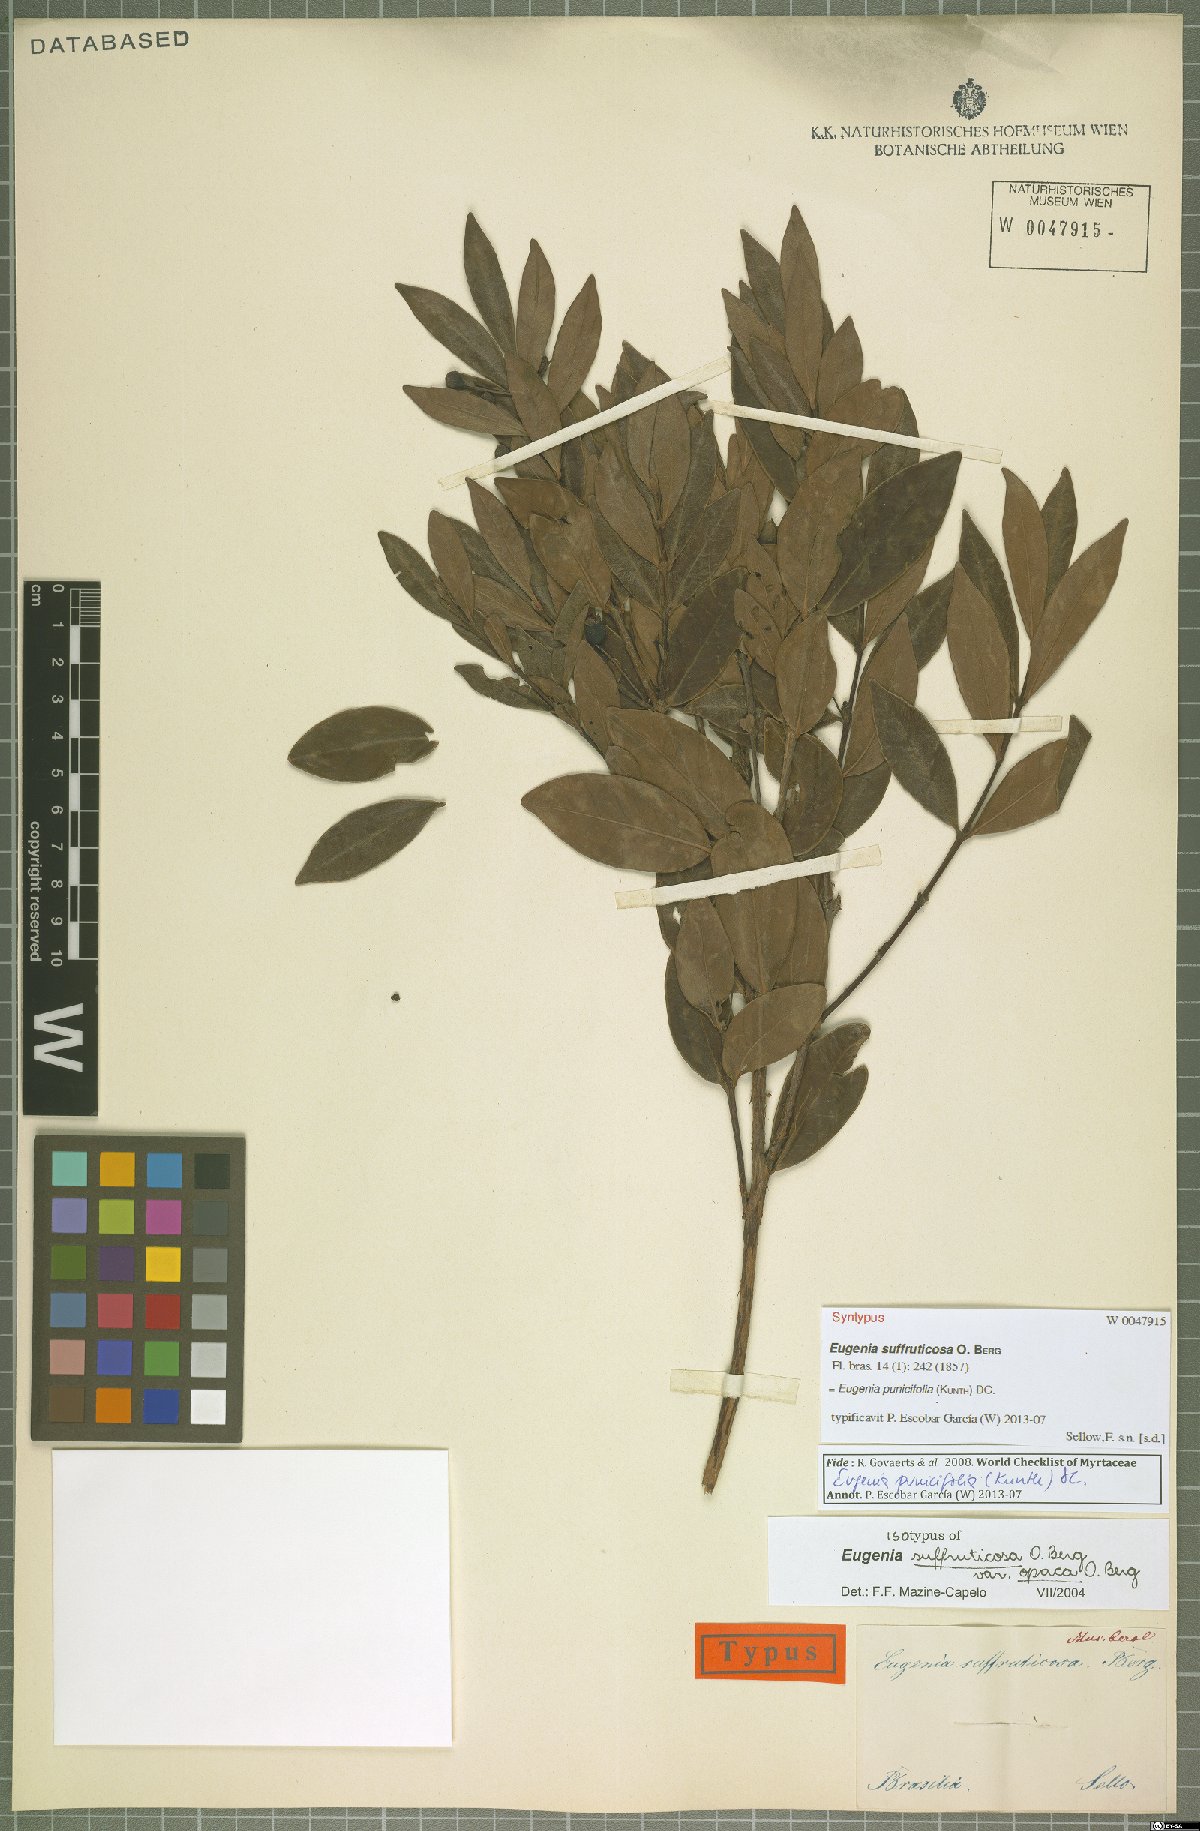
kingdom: Plantae
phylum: Tracheophyta
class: Magnoliopsida
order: Myrtales
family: Myrtaceae
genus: Eugenia
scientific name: Eugenia punicifolia
